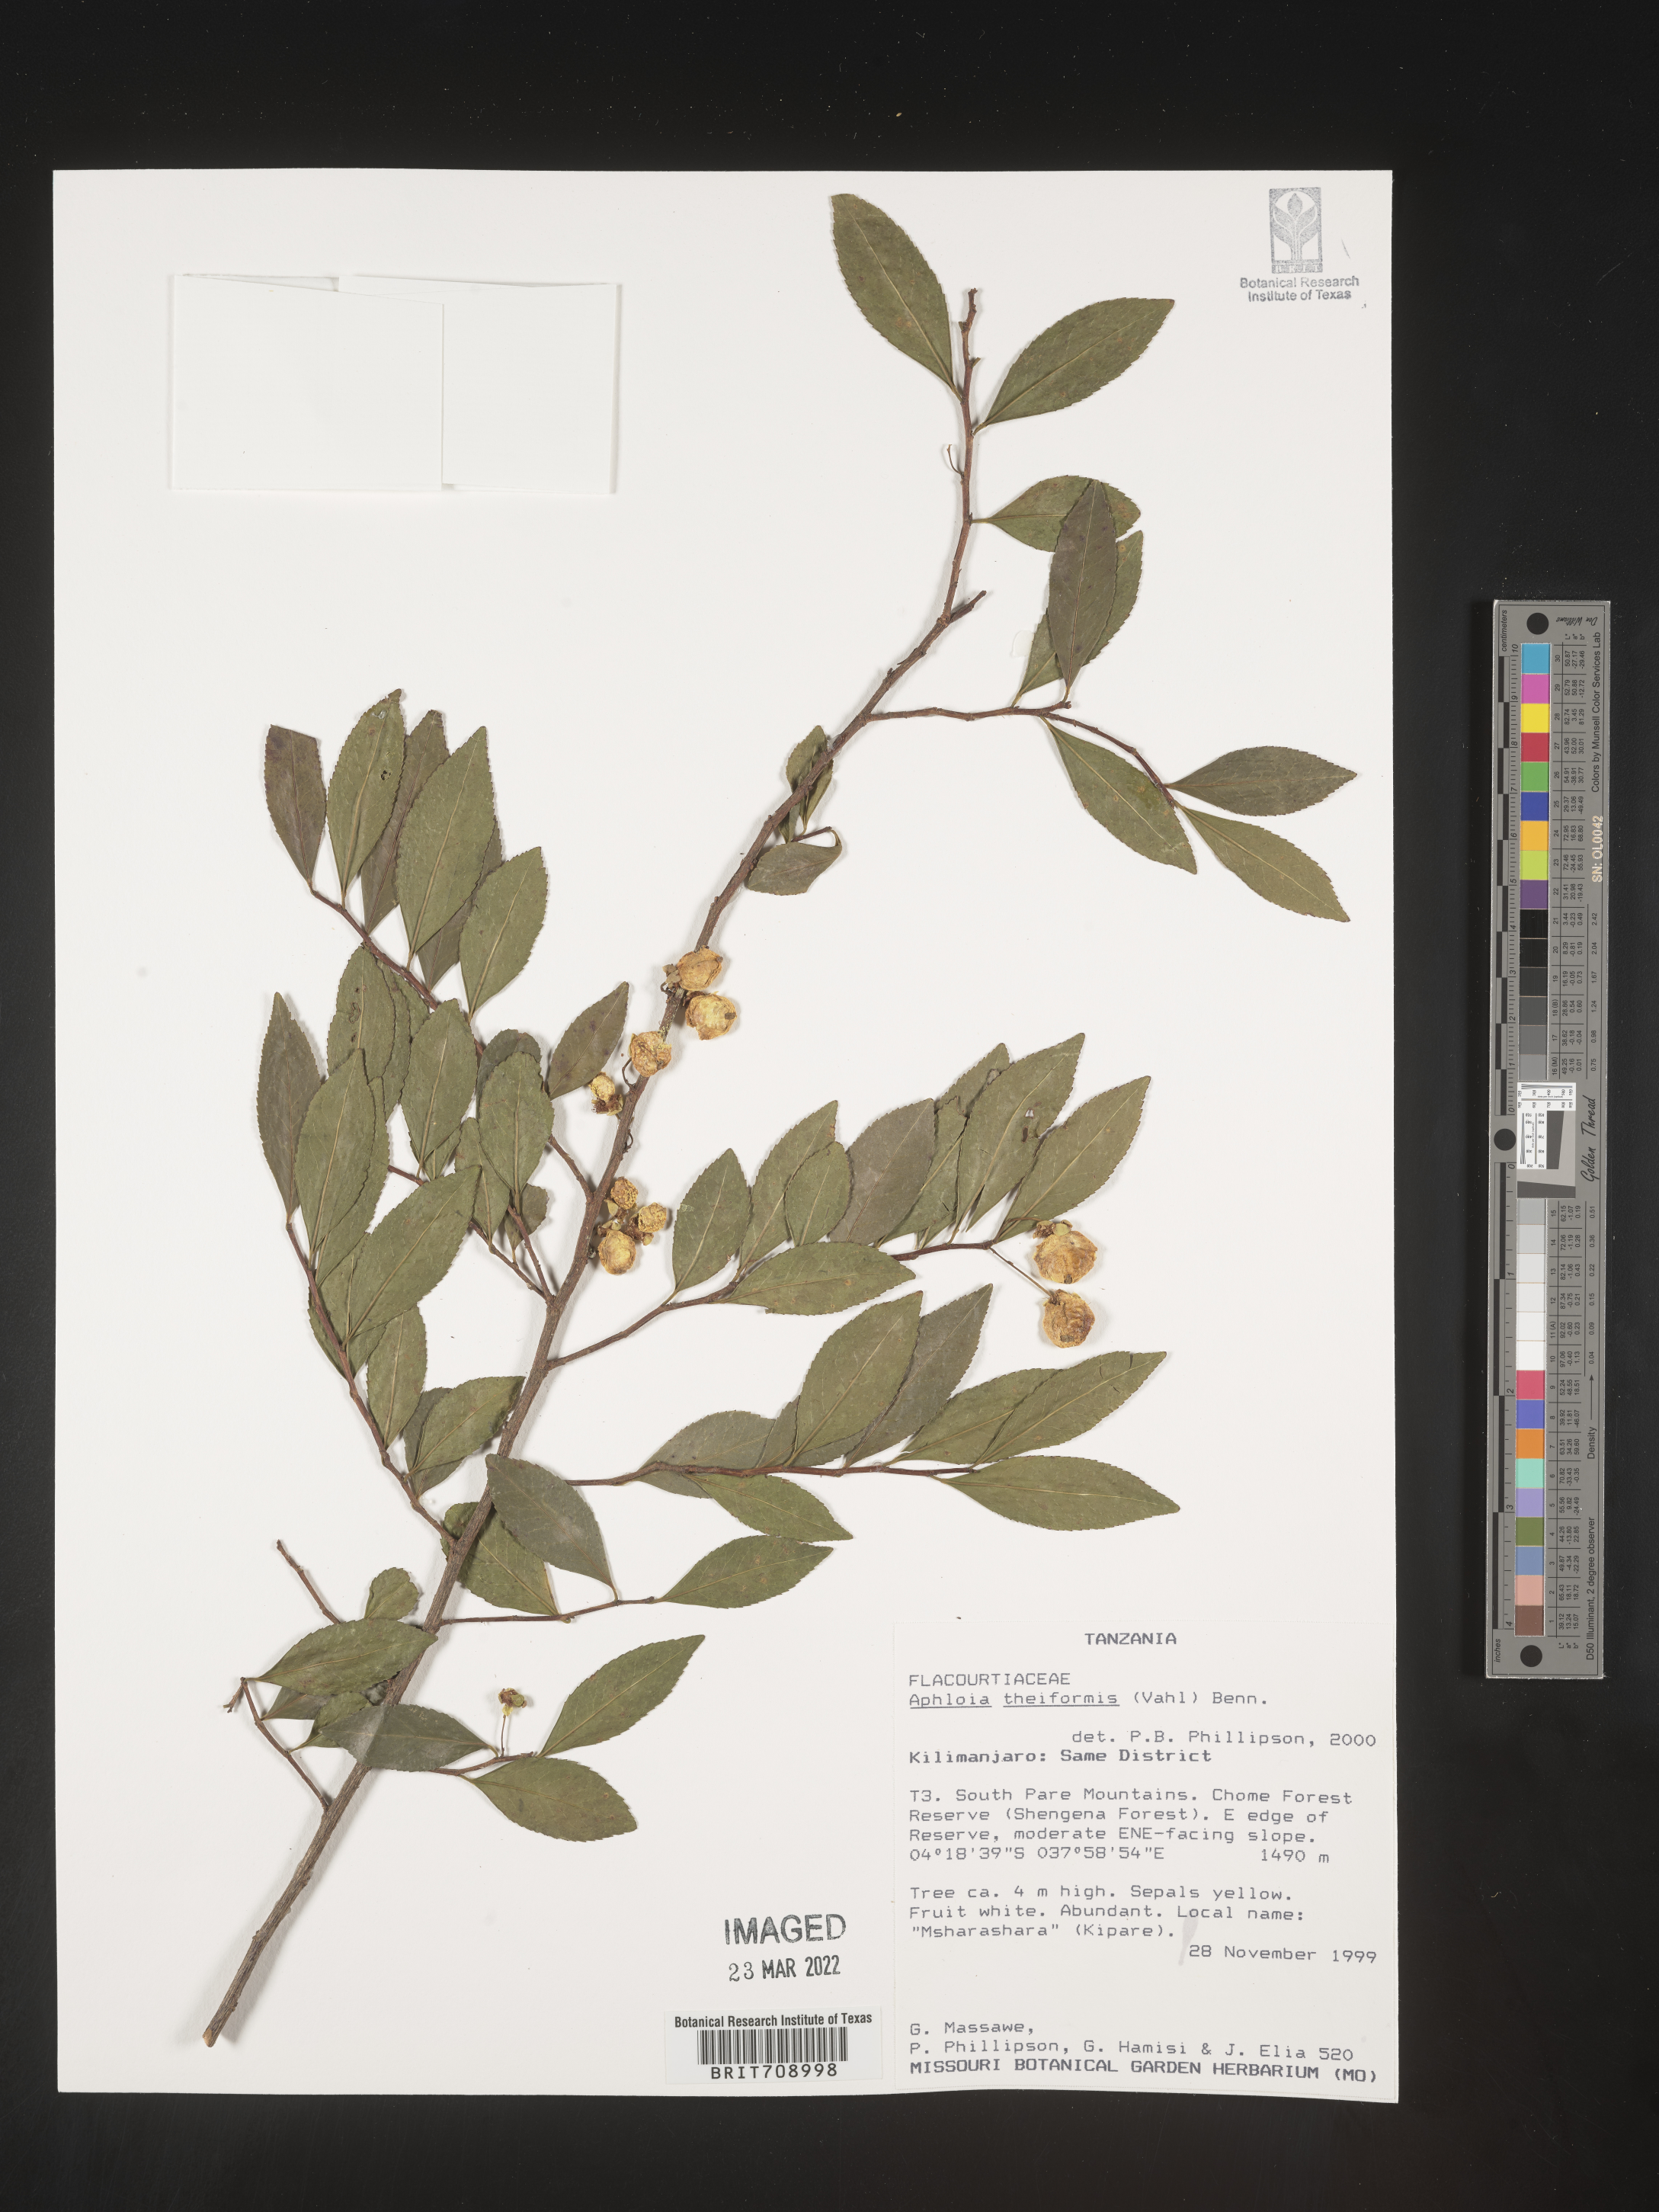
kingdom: Plantae
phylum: Tracheophyta
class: Magnoliopsida
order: Crossosomatales
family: Aphloiaceae
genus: Aphloia
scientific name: Aphloia
